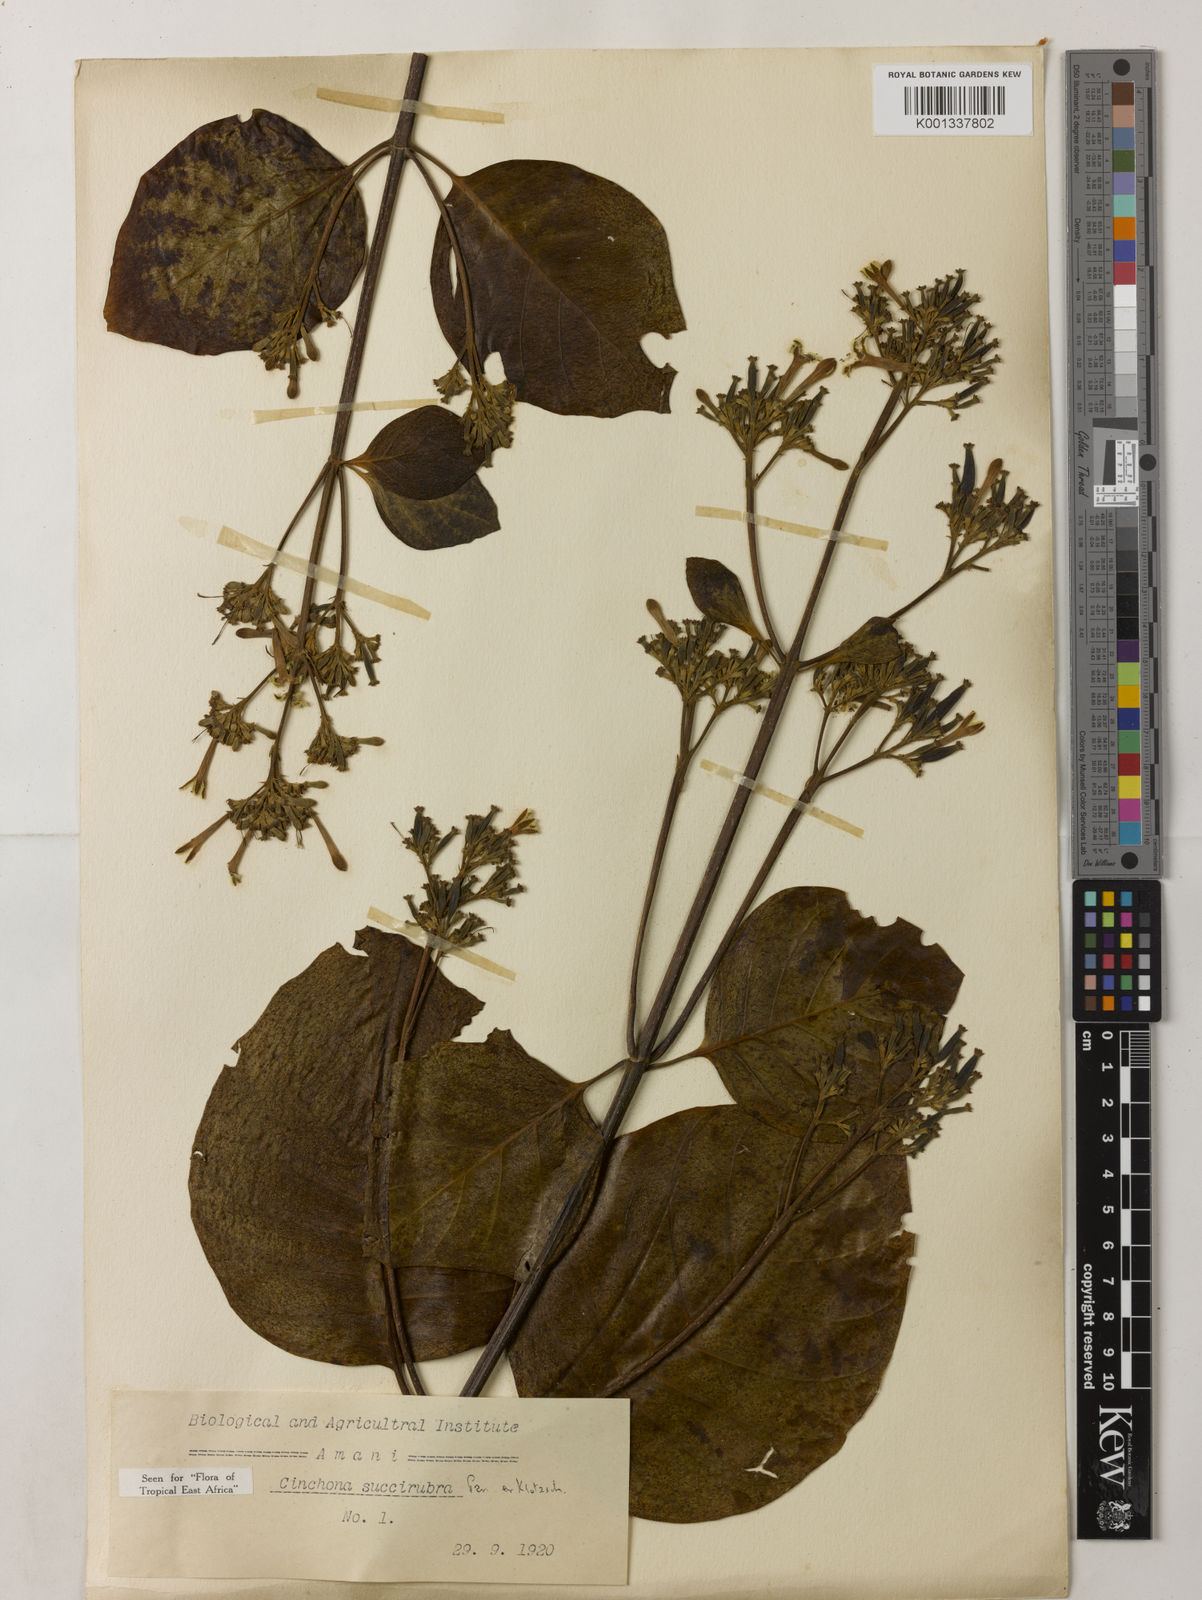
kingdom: Plantae
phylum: Tracheophyta
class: Magnoliopsida
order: Gentianales
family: Rubiaceae
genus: Cinchona
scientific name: Cinchona pubescens
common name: Quinine
